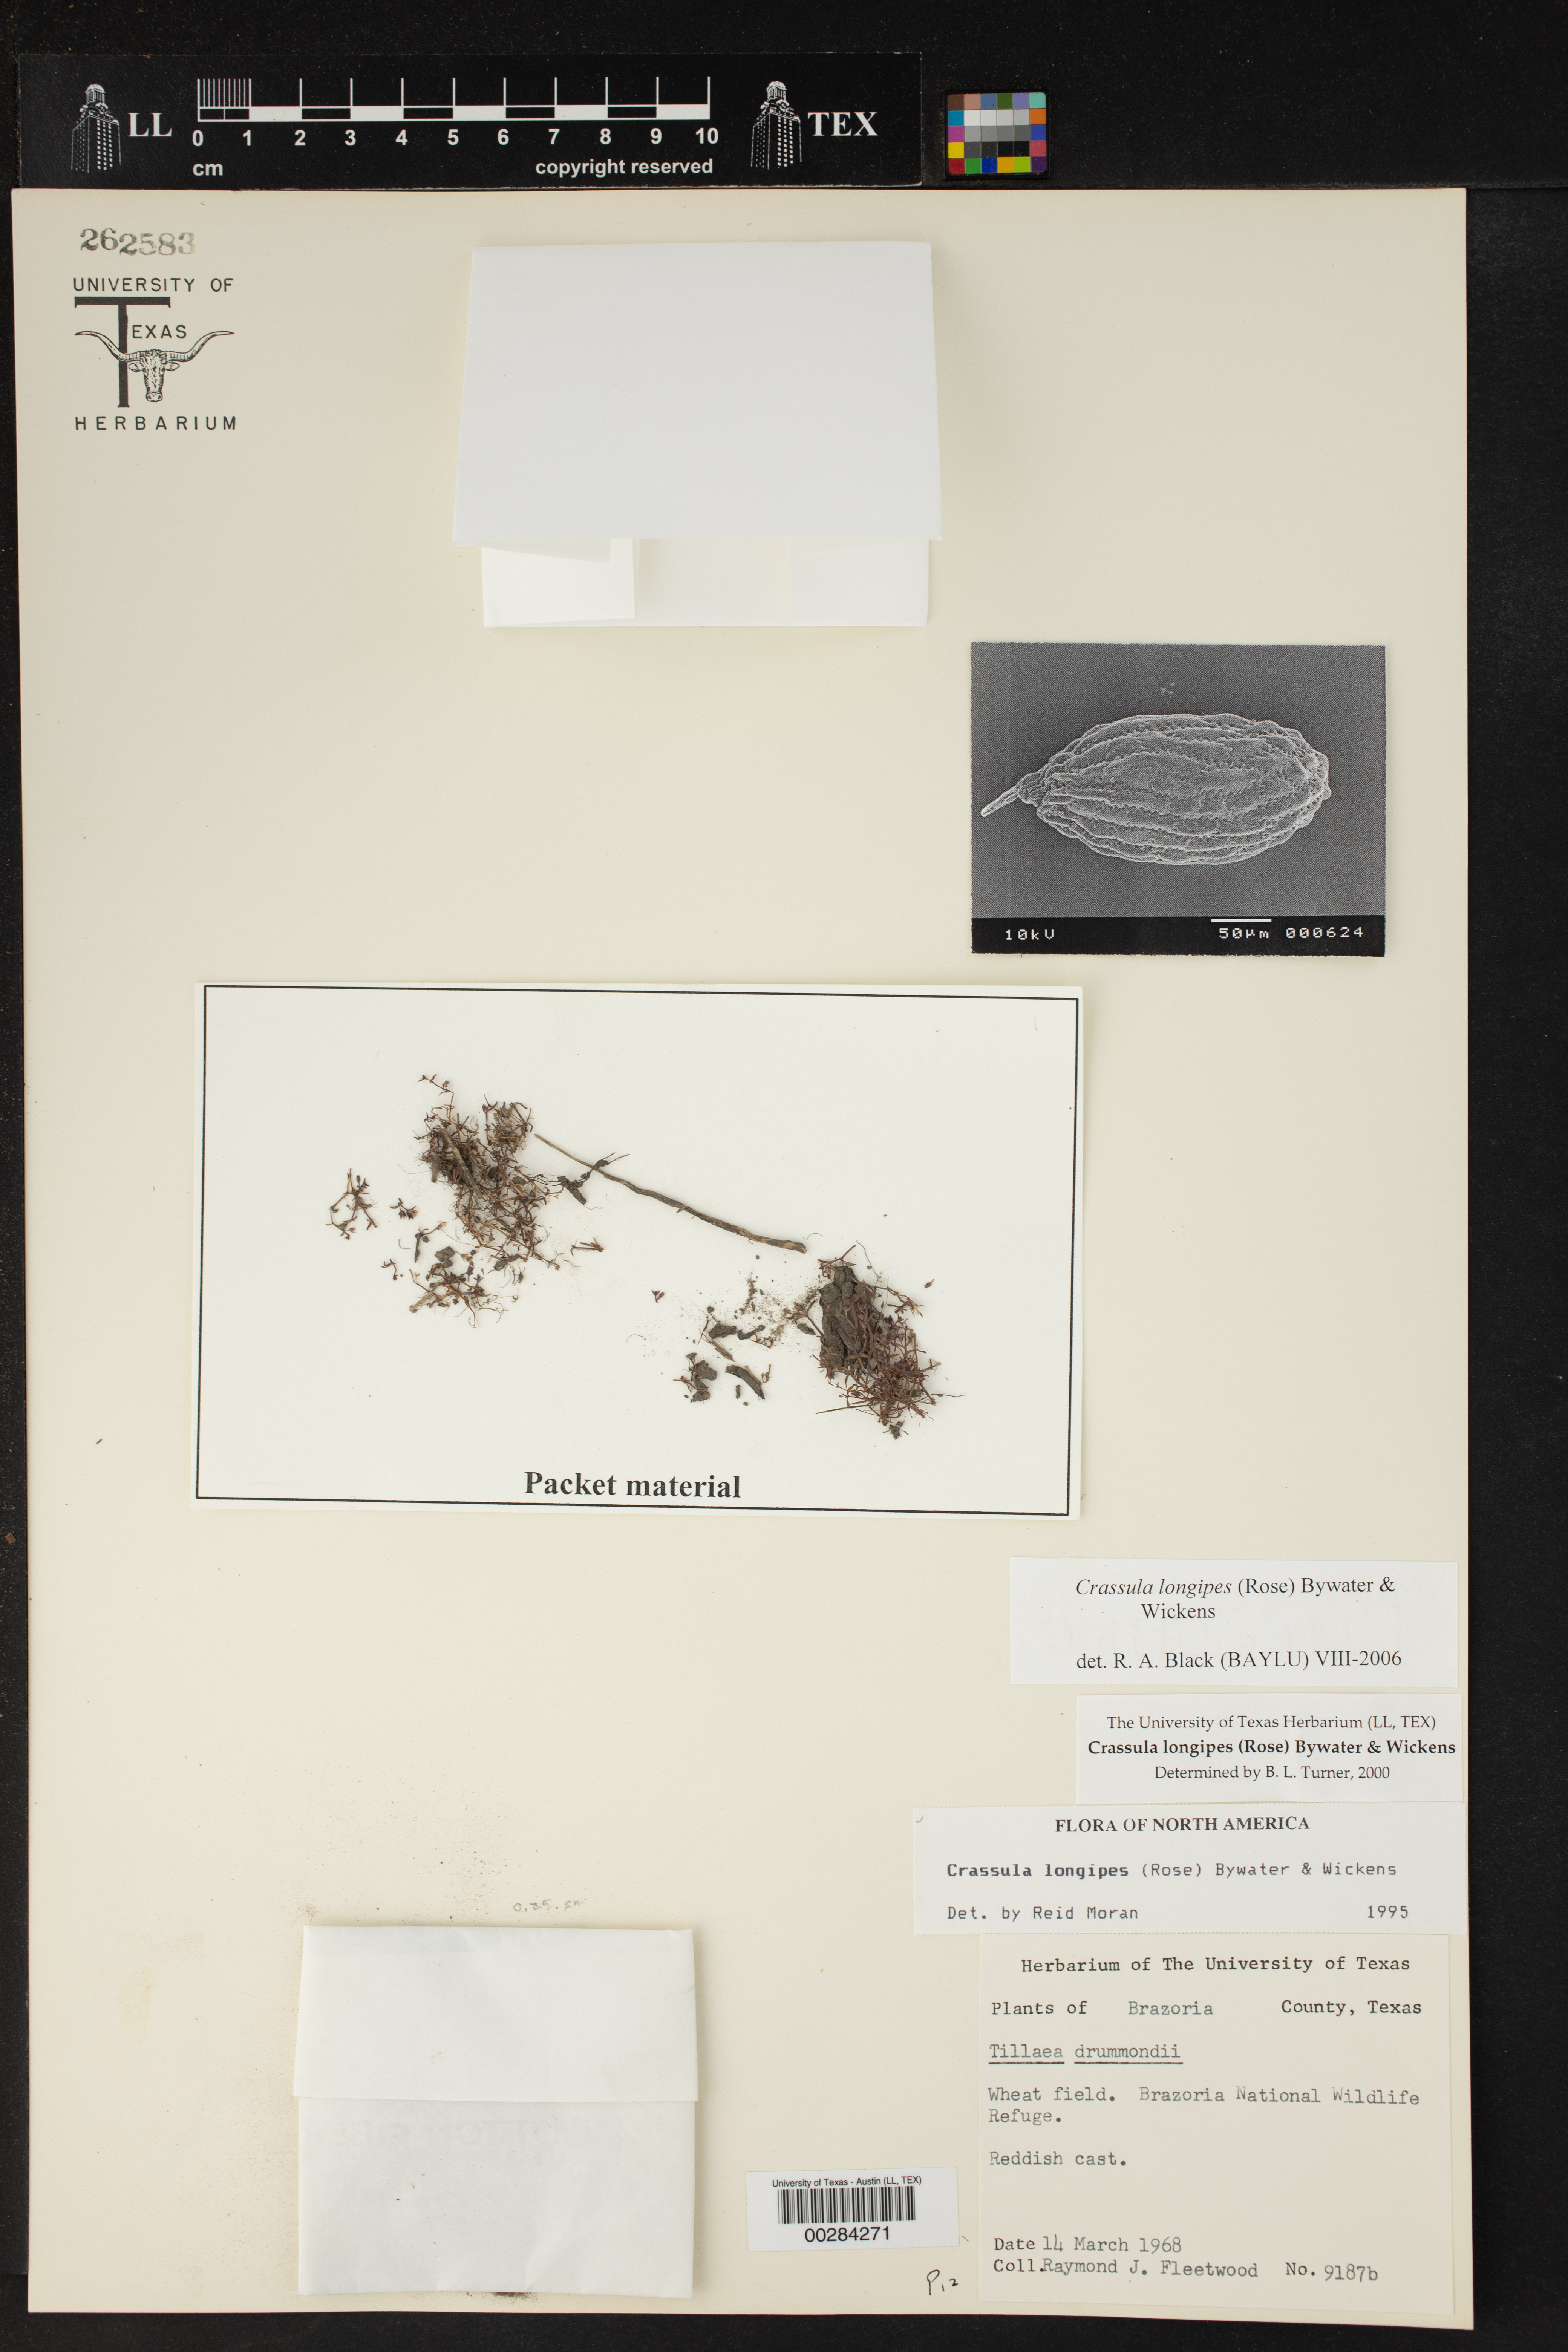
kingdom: Plantae
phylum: Tracheophyta
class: Magnoliopsida
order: Saxifragales
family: Crassulaceae
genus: Crassula
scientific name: Crassula longipes
